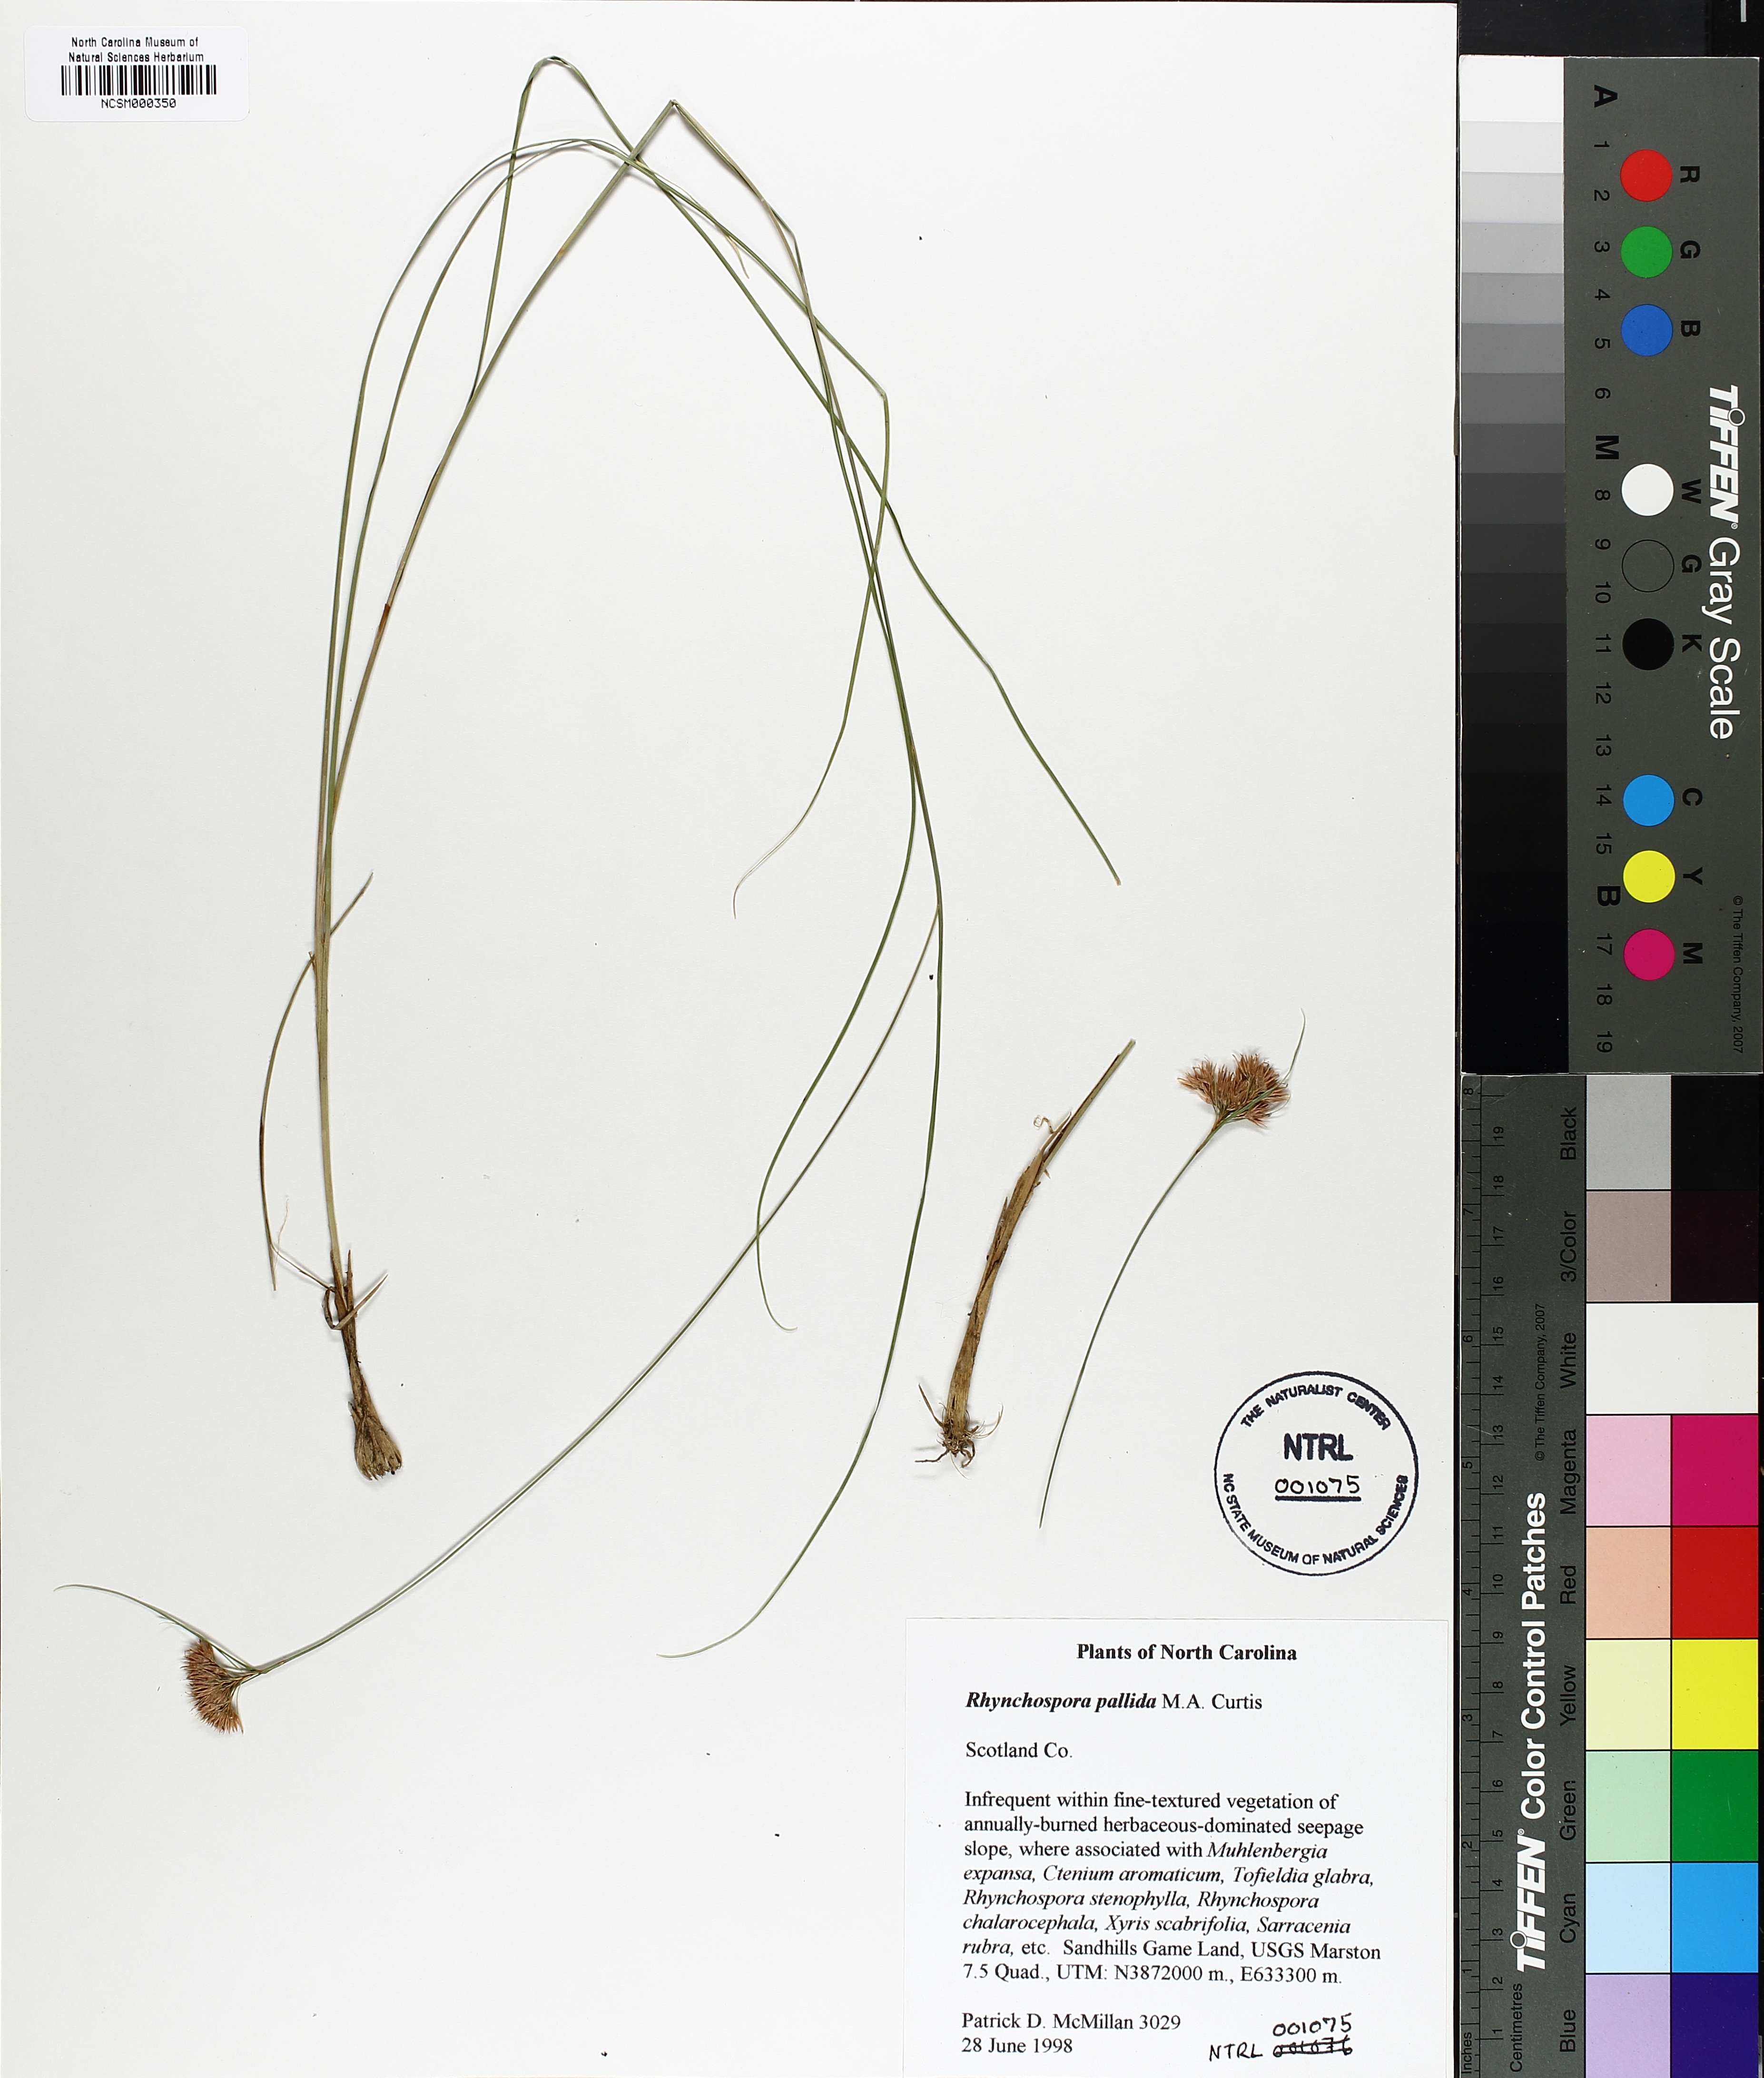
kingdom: Plantae
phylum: Tracheophyta
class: Liliopsida
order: Poales
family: Cyperaceae
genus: Rhynchospora
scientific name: Rhynchospora pallida
